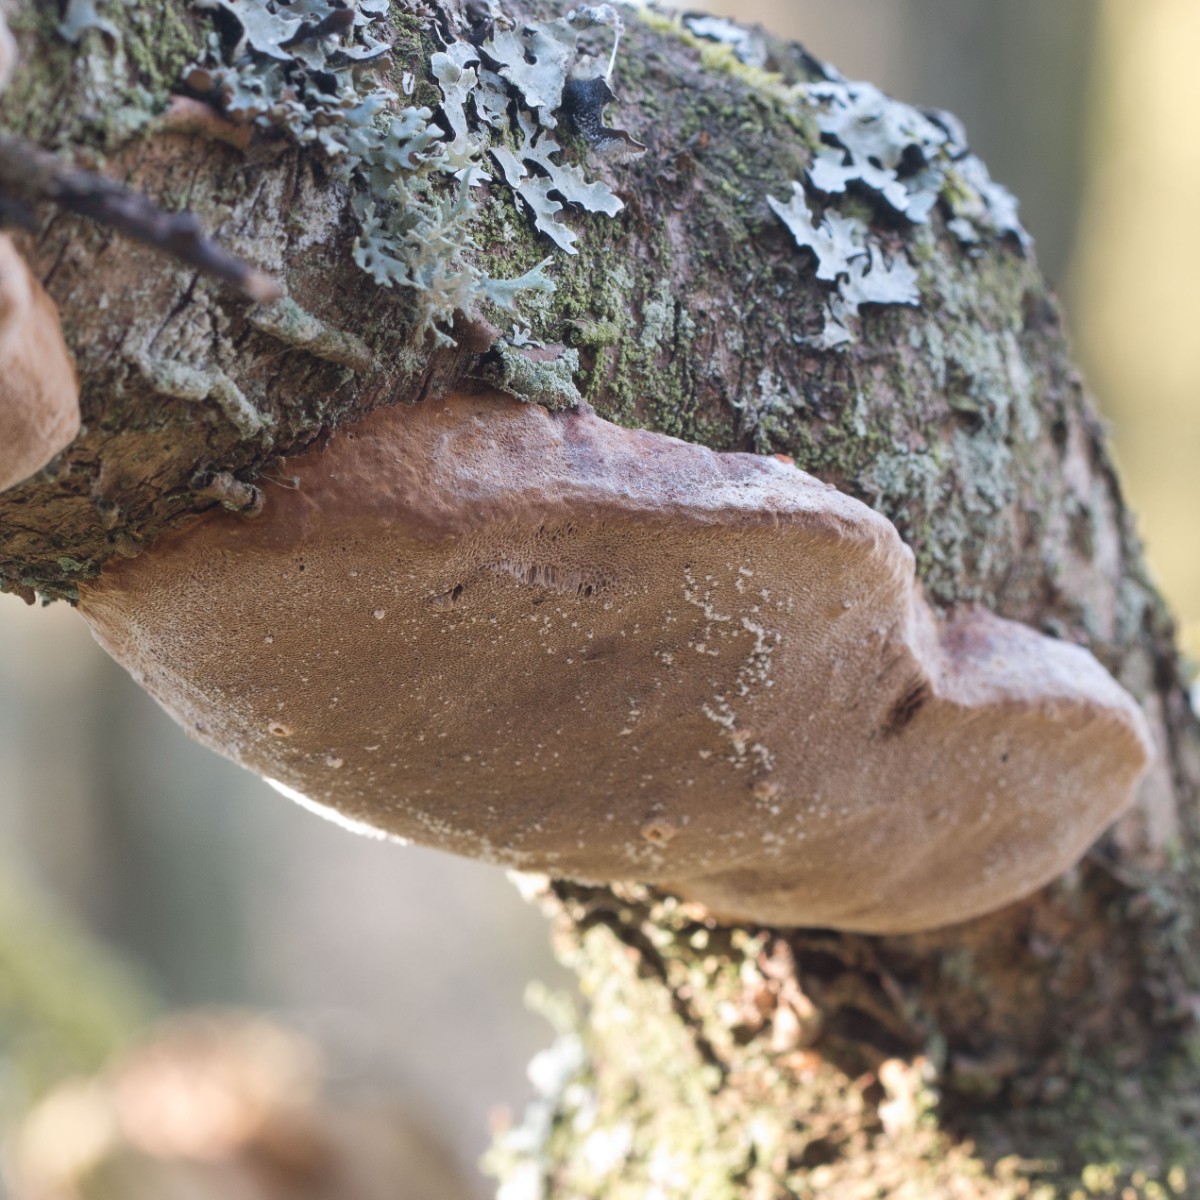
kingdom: Fungi
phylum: Basidiomycota
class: Agaricomycetes
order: Hymenochaetales
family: Hymenochaetaceae
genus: Phellinus
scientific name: Phellinus pomaceus
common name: blomme-ildporesvamp
